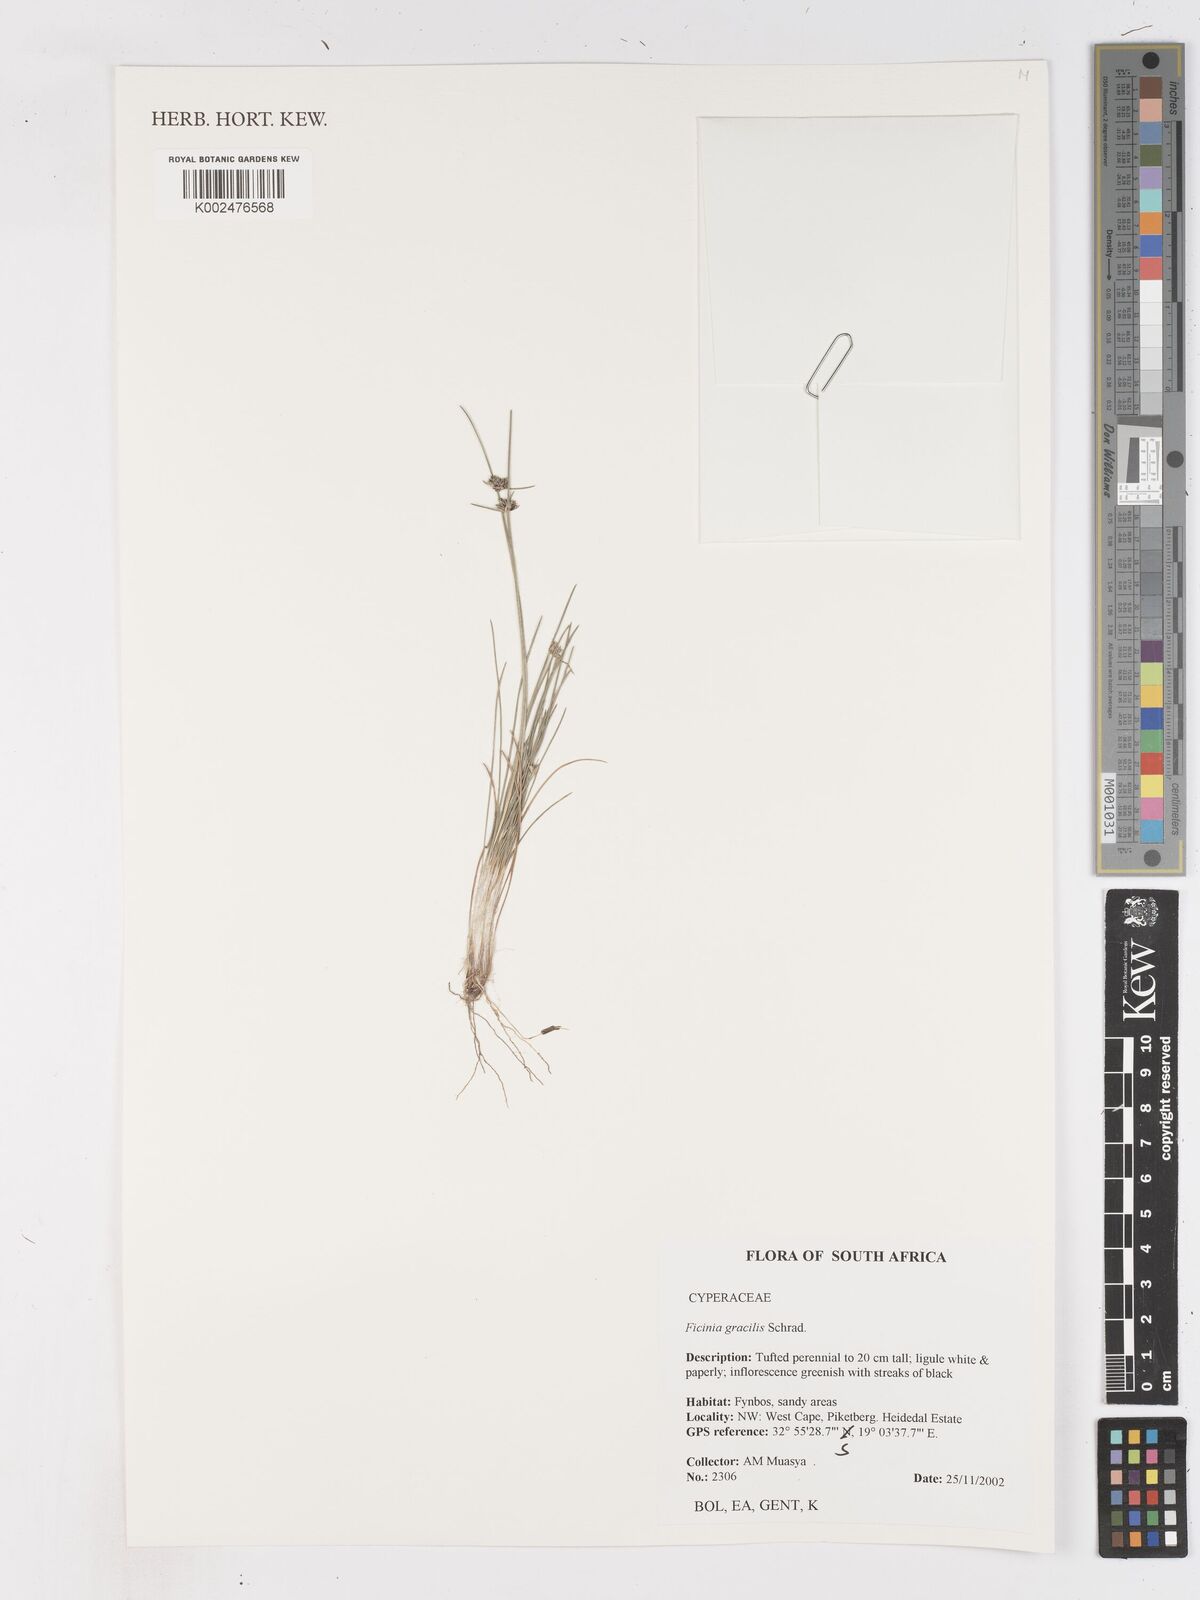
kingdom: Plantae
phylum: Tracheophyta
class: Liliopsida
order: Poales
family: Cyperaceae
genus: Ficinia
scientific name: Ficinia
